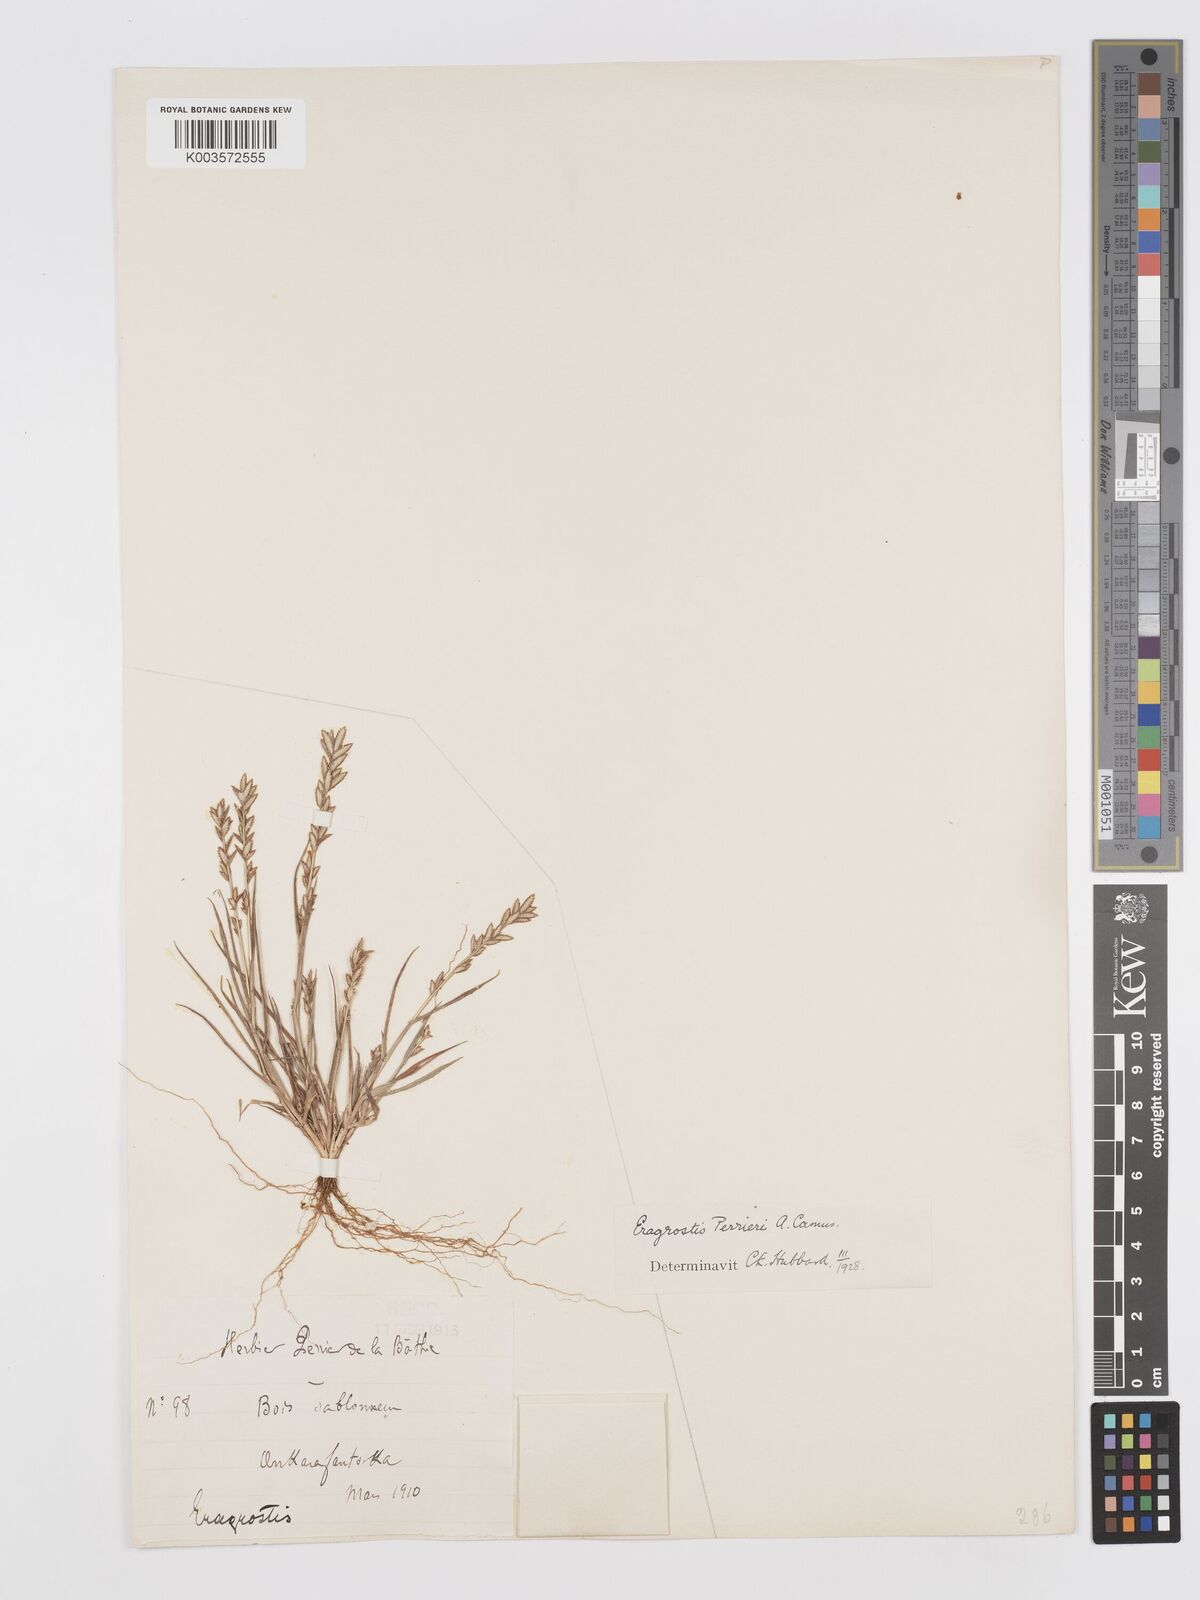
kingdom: Plantae
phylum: Tracheophyta
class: Liliopsida
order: Poales
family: Poaceae
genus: Eragrostis
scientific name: Eragrostis perrieri
